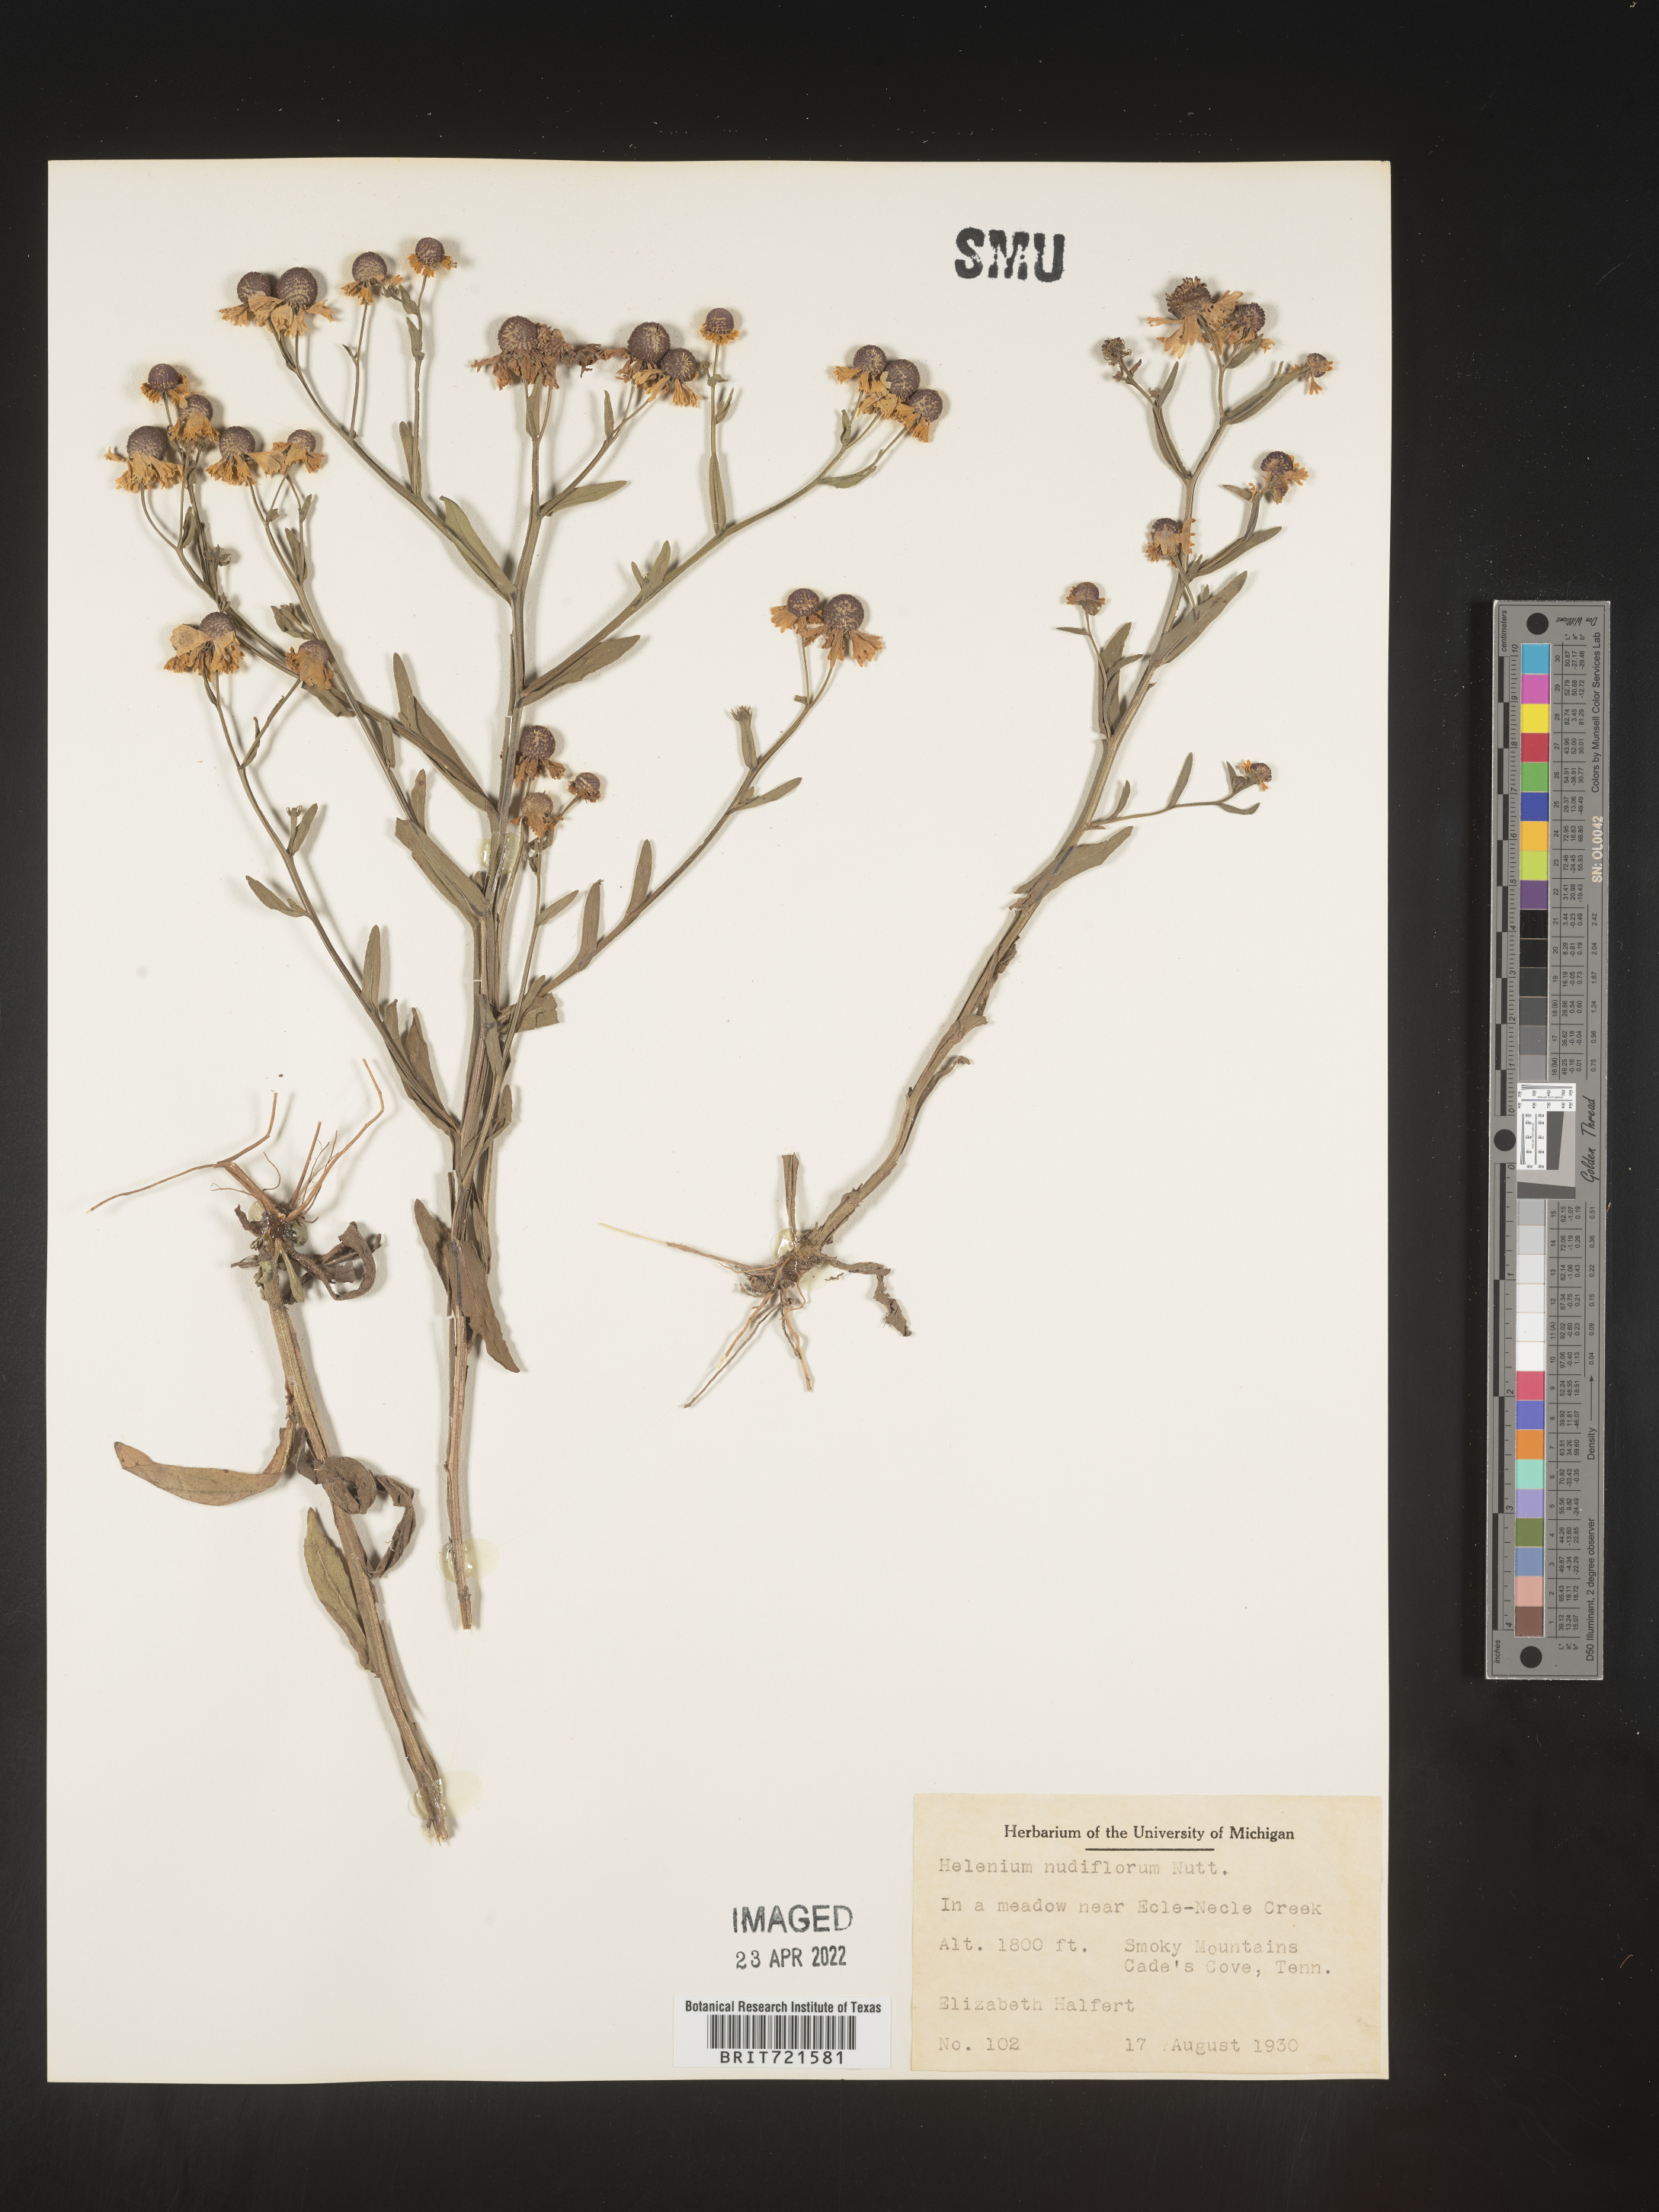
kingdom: Plantae
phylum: Tracheophyta
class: Magnoliopsida
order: Asterales
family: Asteraceae
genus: Helenium
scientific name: Helenium flexuosum
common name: Naked-flowered sneezeweed
